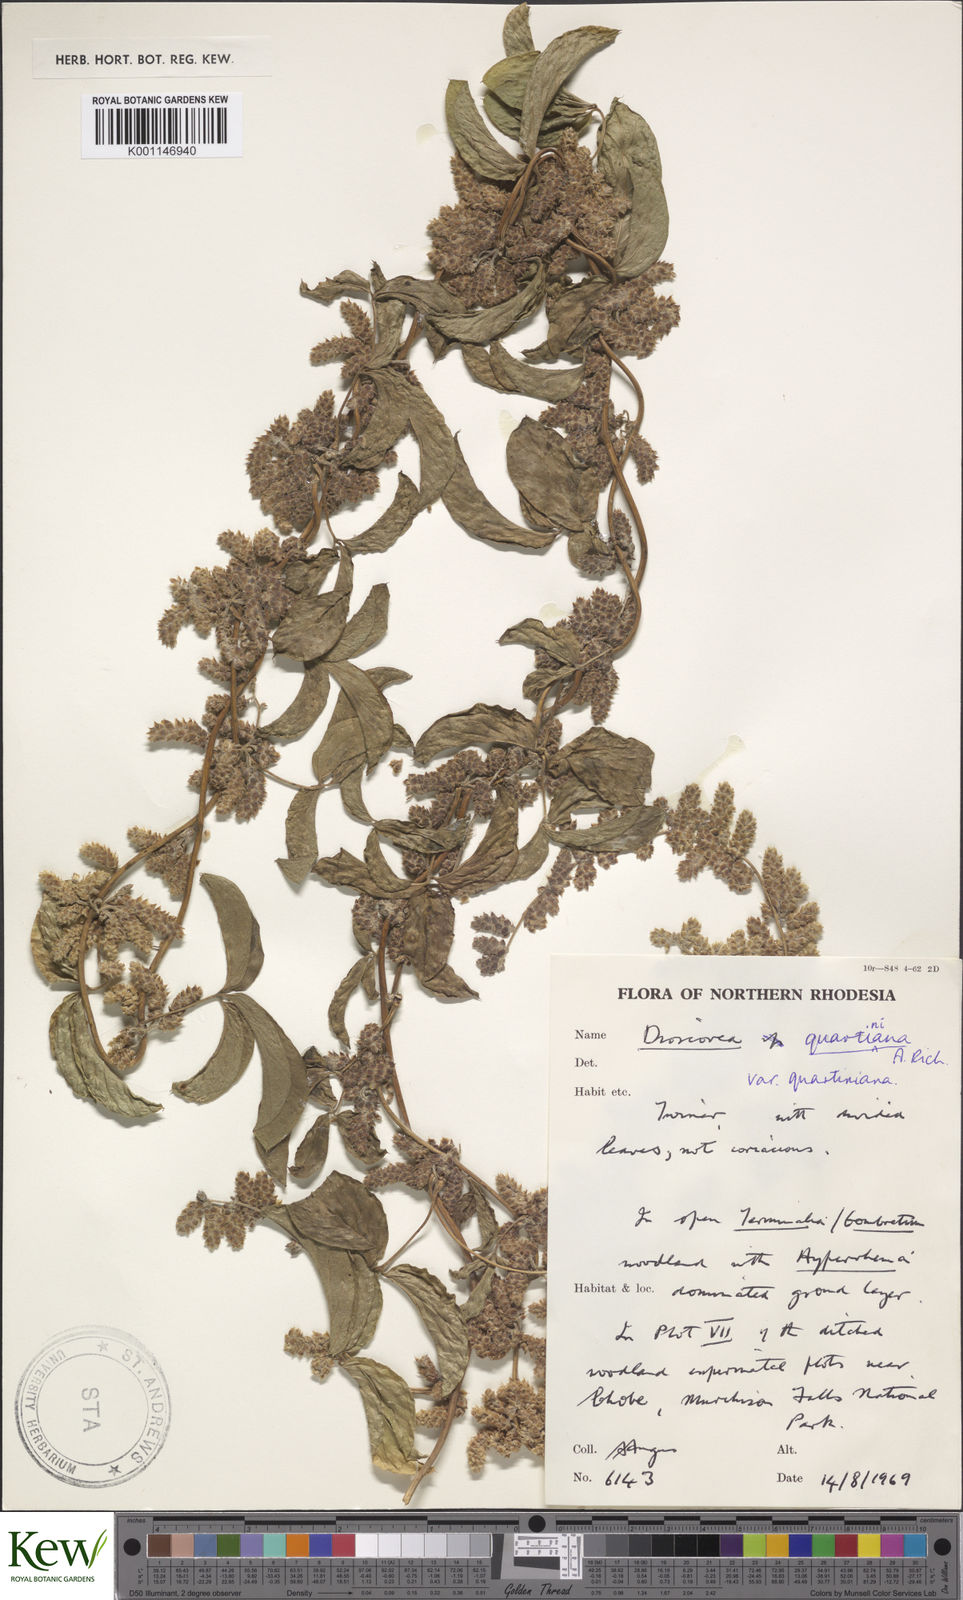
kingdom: Plantae
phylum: Tracheophyta
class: Liliopsida
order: Dioscoreales
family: Dioscoreaceae
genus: Dioscorea
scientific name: Dioscorea quartiniana
